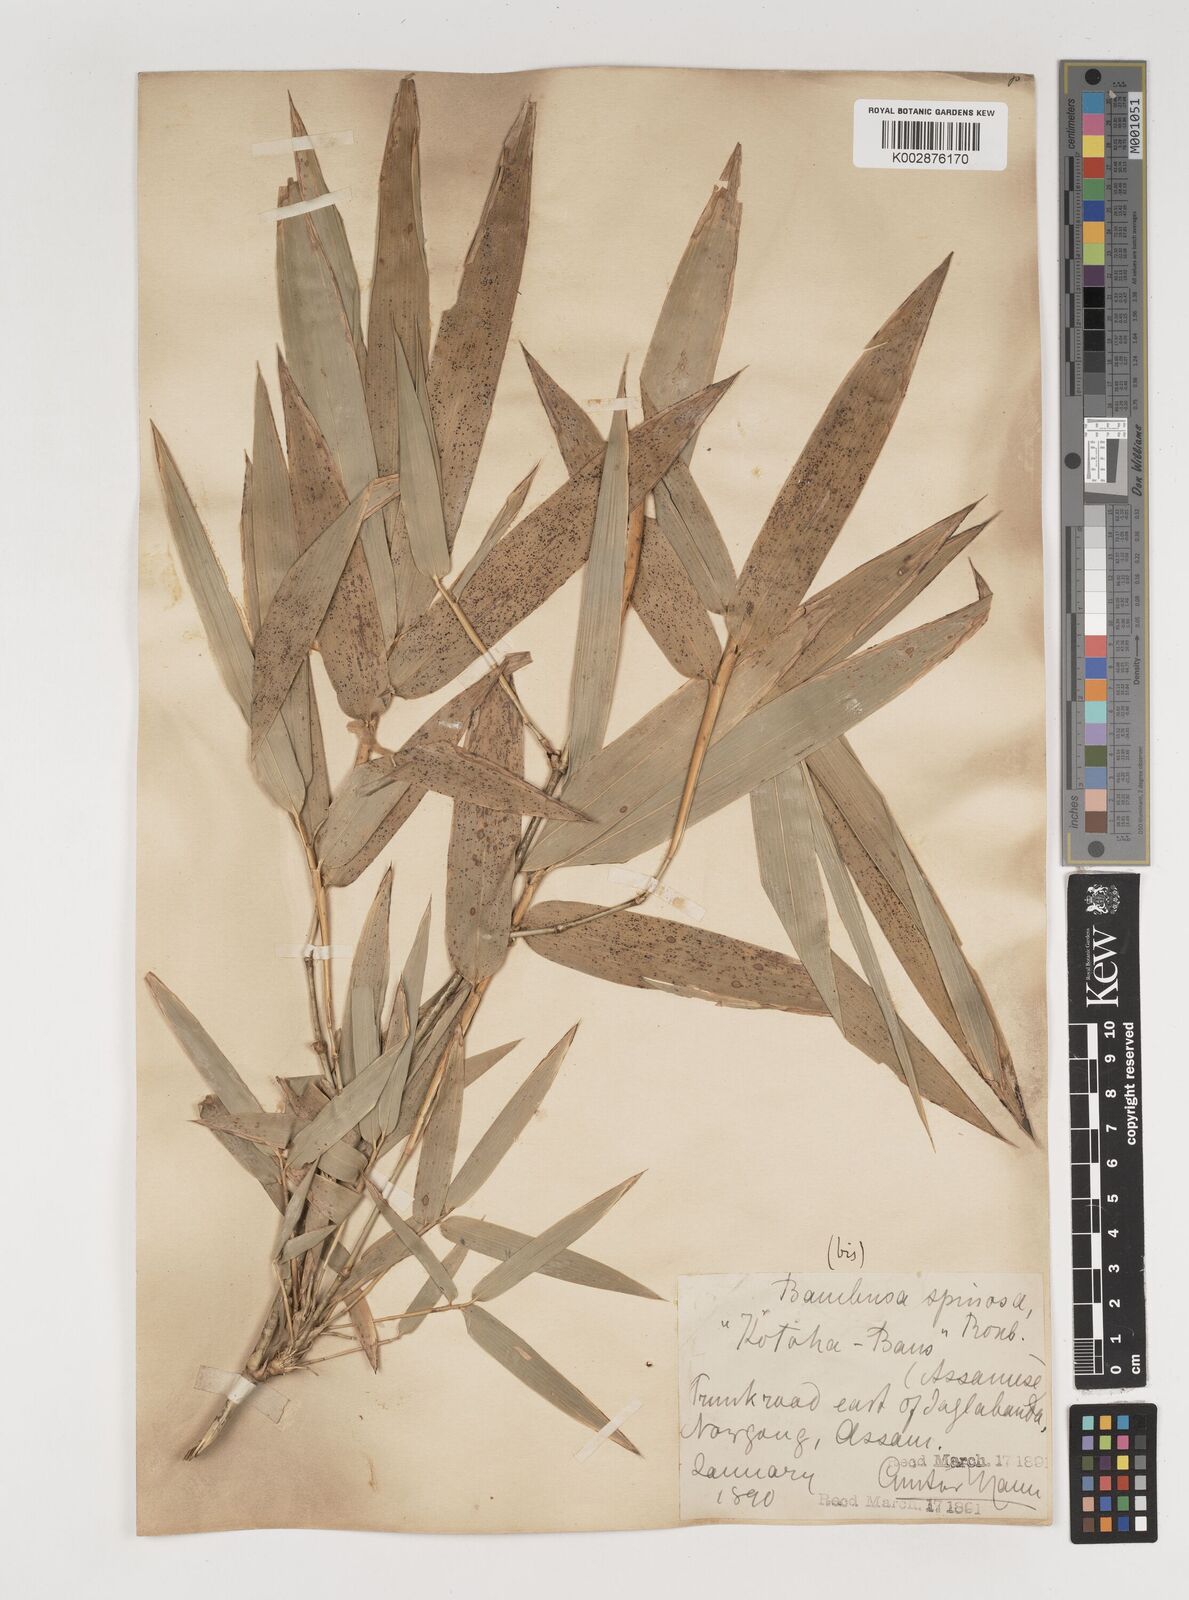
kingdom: Plantae
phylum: Tracheophyta
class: Liliopsida
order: Poales
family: Poaceae
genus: Bambusa
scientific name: Bambusa bambos
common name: Indian thorny bamboo
